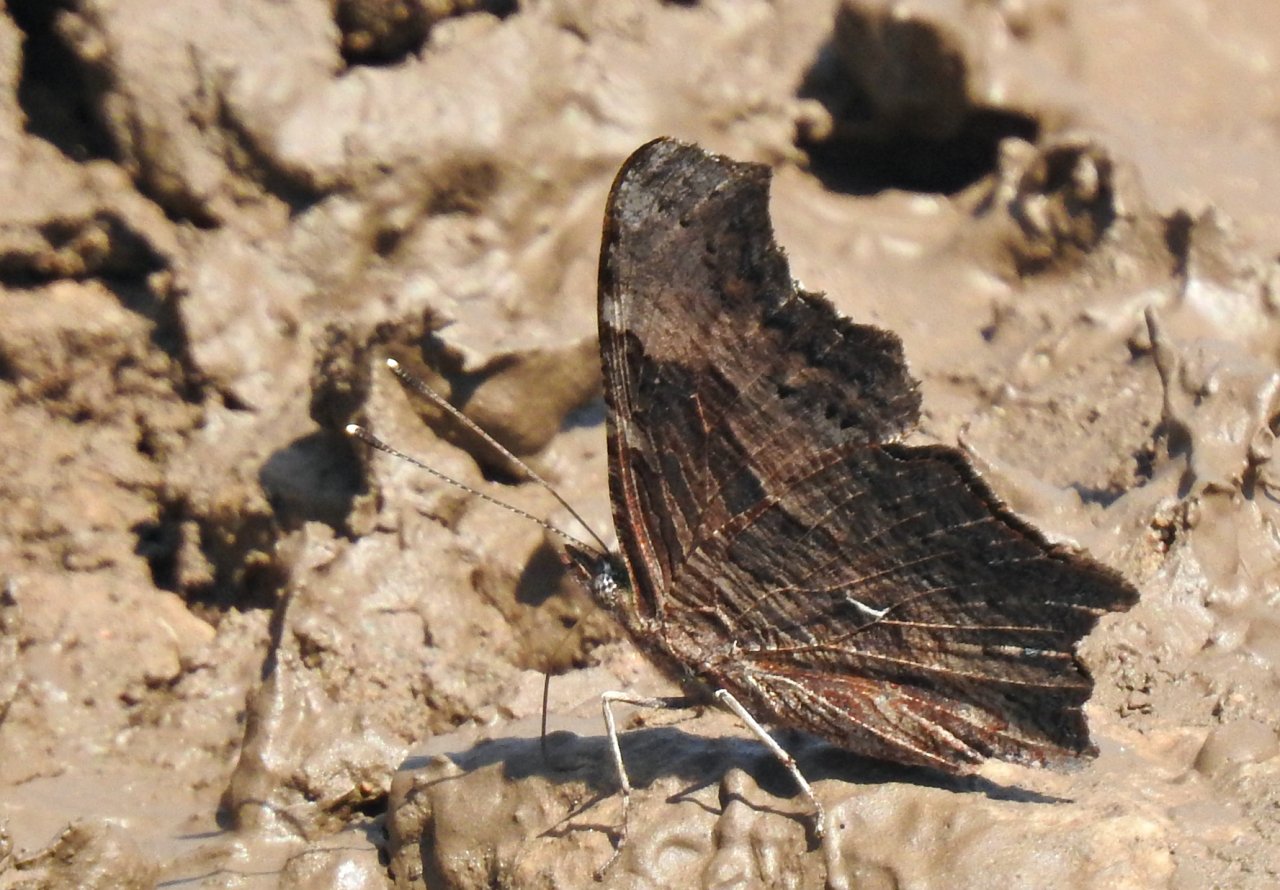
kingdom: Animalia
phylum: Arthropoda
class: Insecta
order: Lepidoptera
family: Nymphalidae
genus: Polygonia
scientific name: Polygonia progne
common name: Gray Comma
